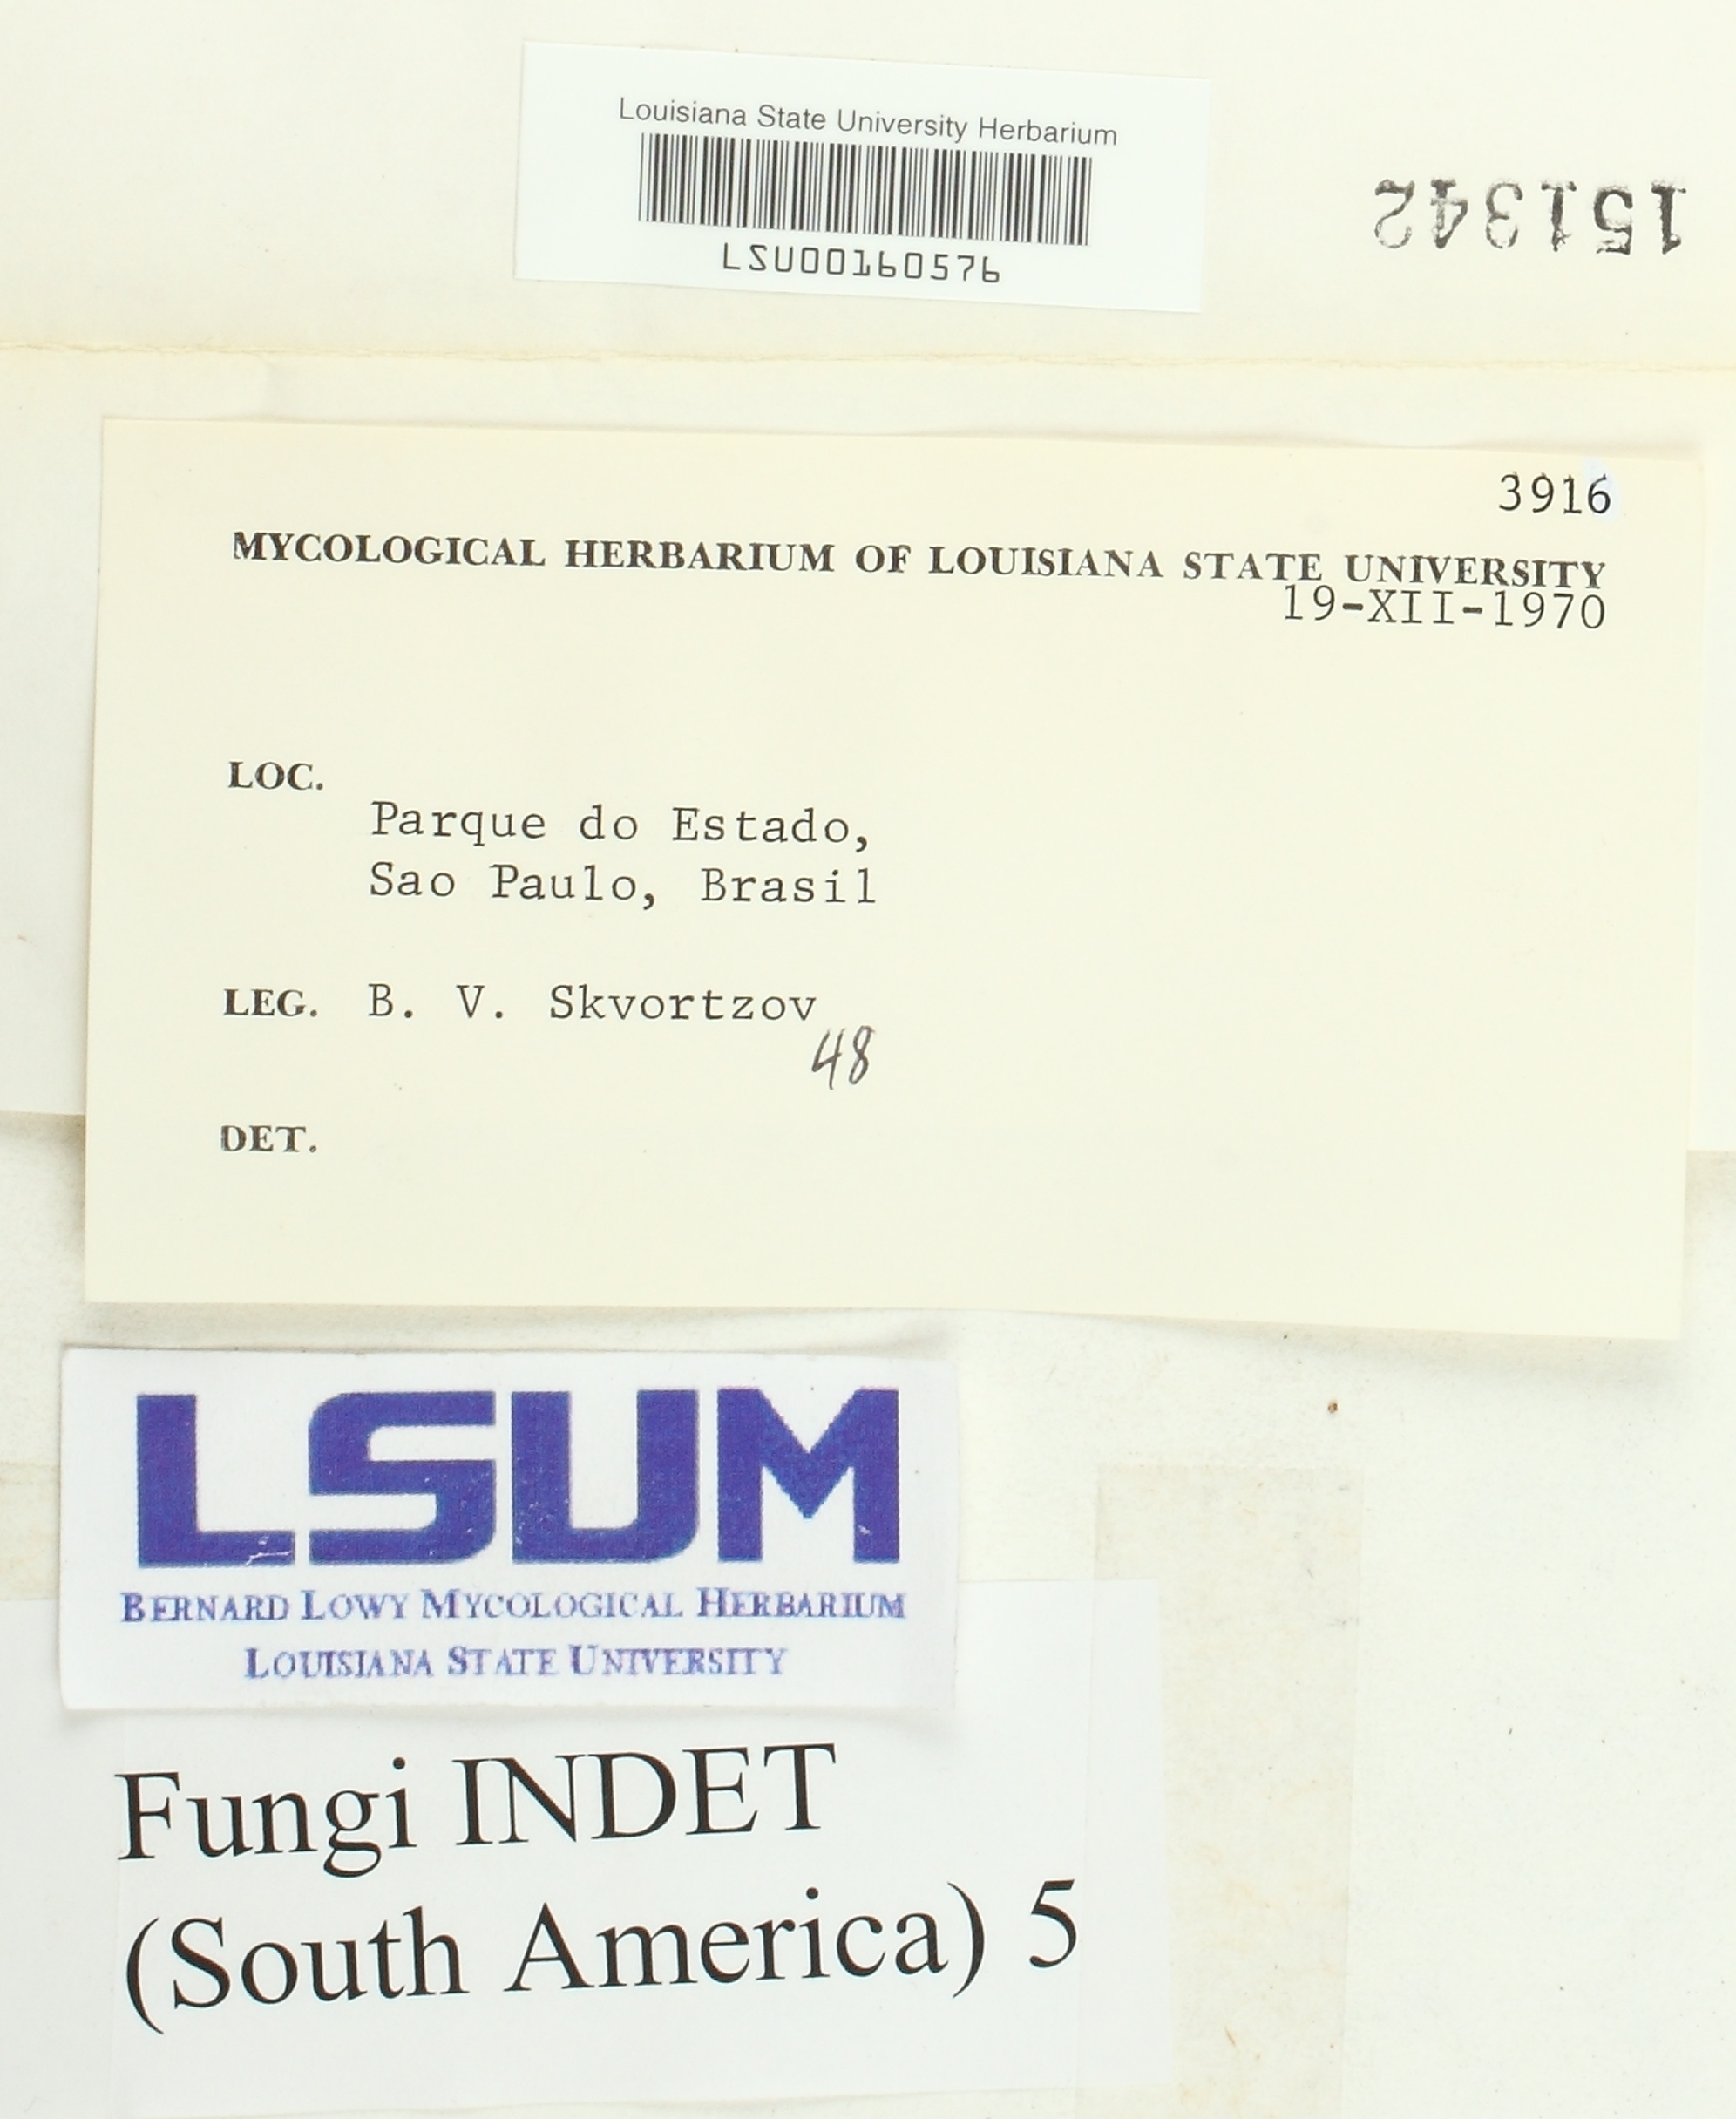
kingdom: Fungi
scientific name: Fungi
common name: Fungi
